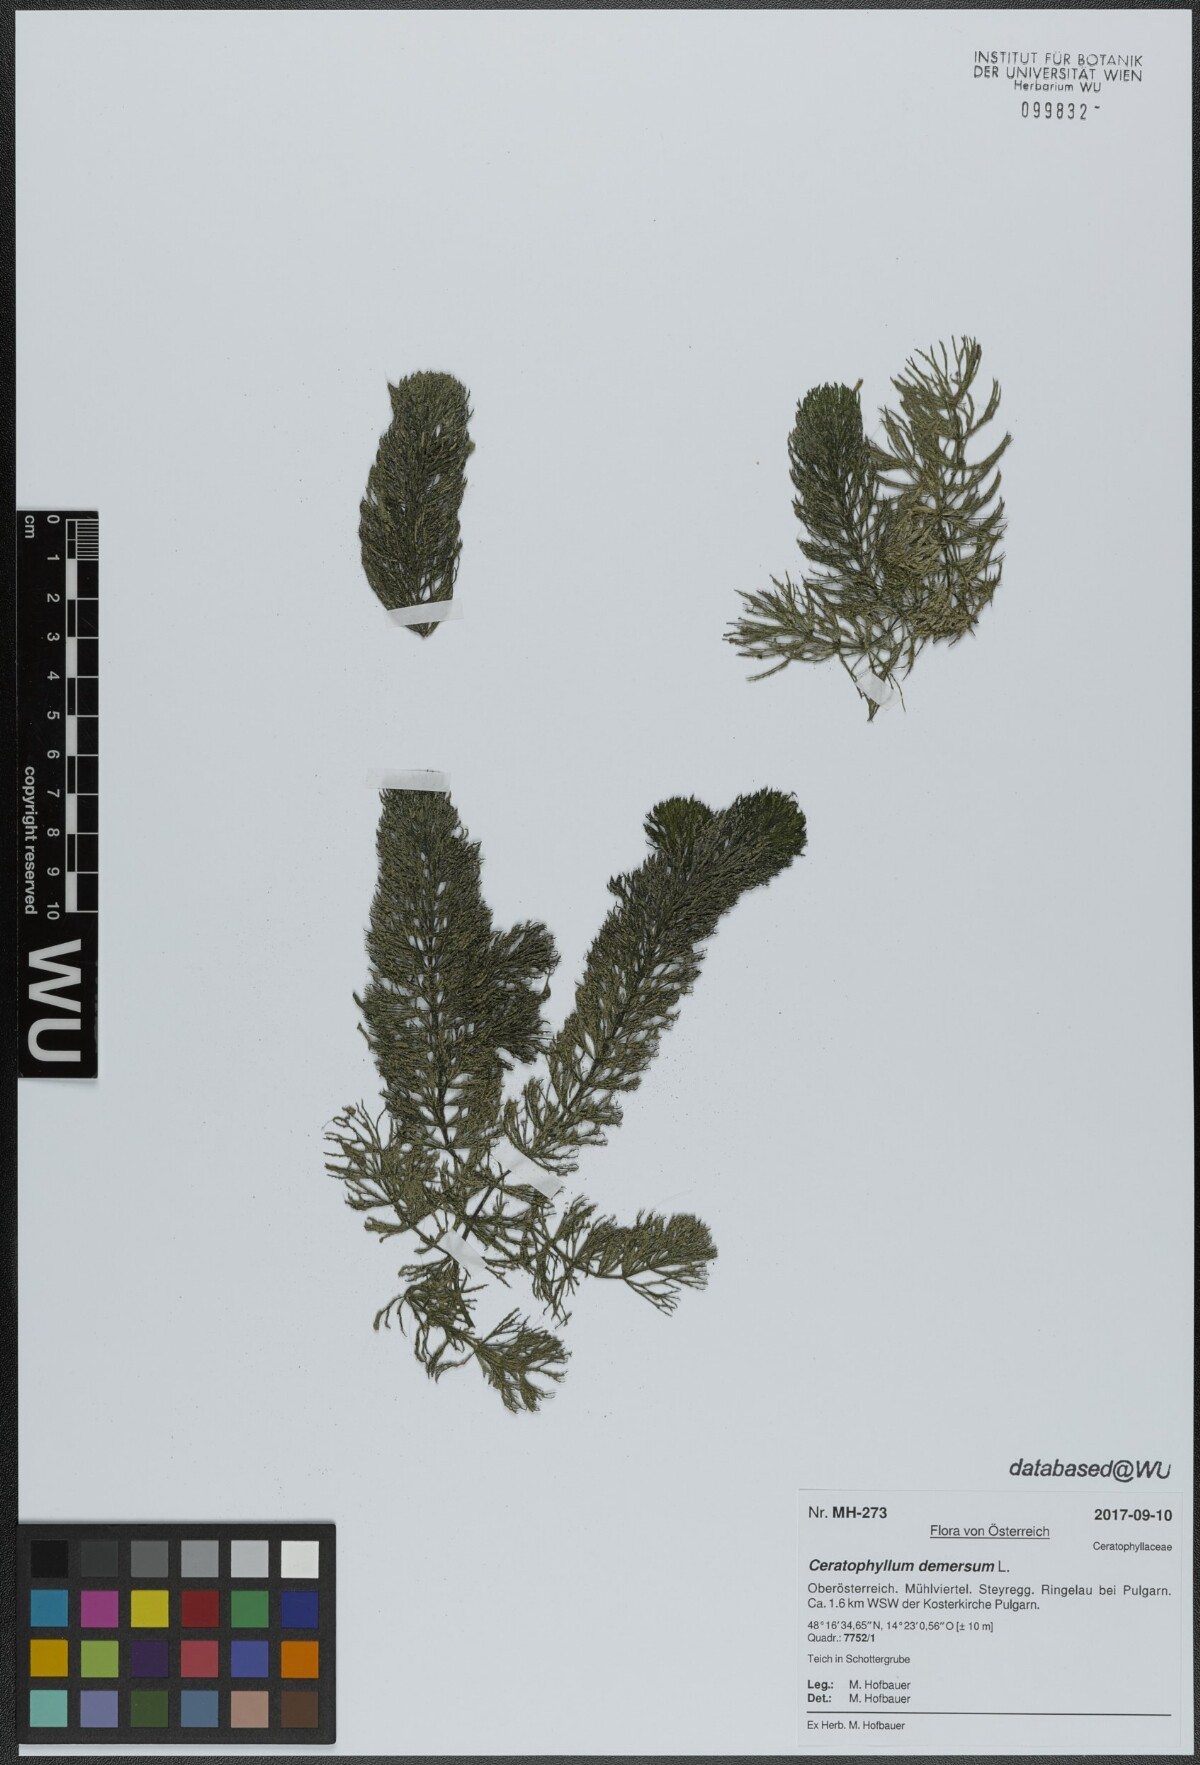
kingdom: Plantae
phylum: Tracheophyta
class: Magnoliopsida
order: Ceratophyllales
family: Ceratophyllaceae
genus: Ceratophyllum
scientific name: Ceratophyllum demersum
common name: Rigid hornwort
